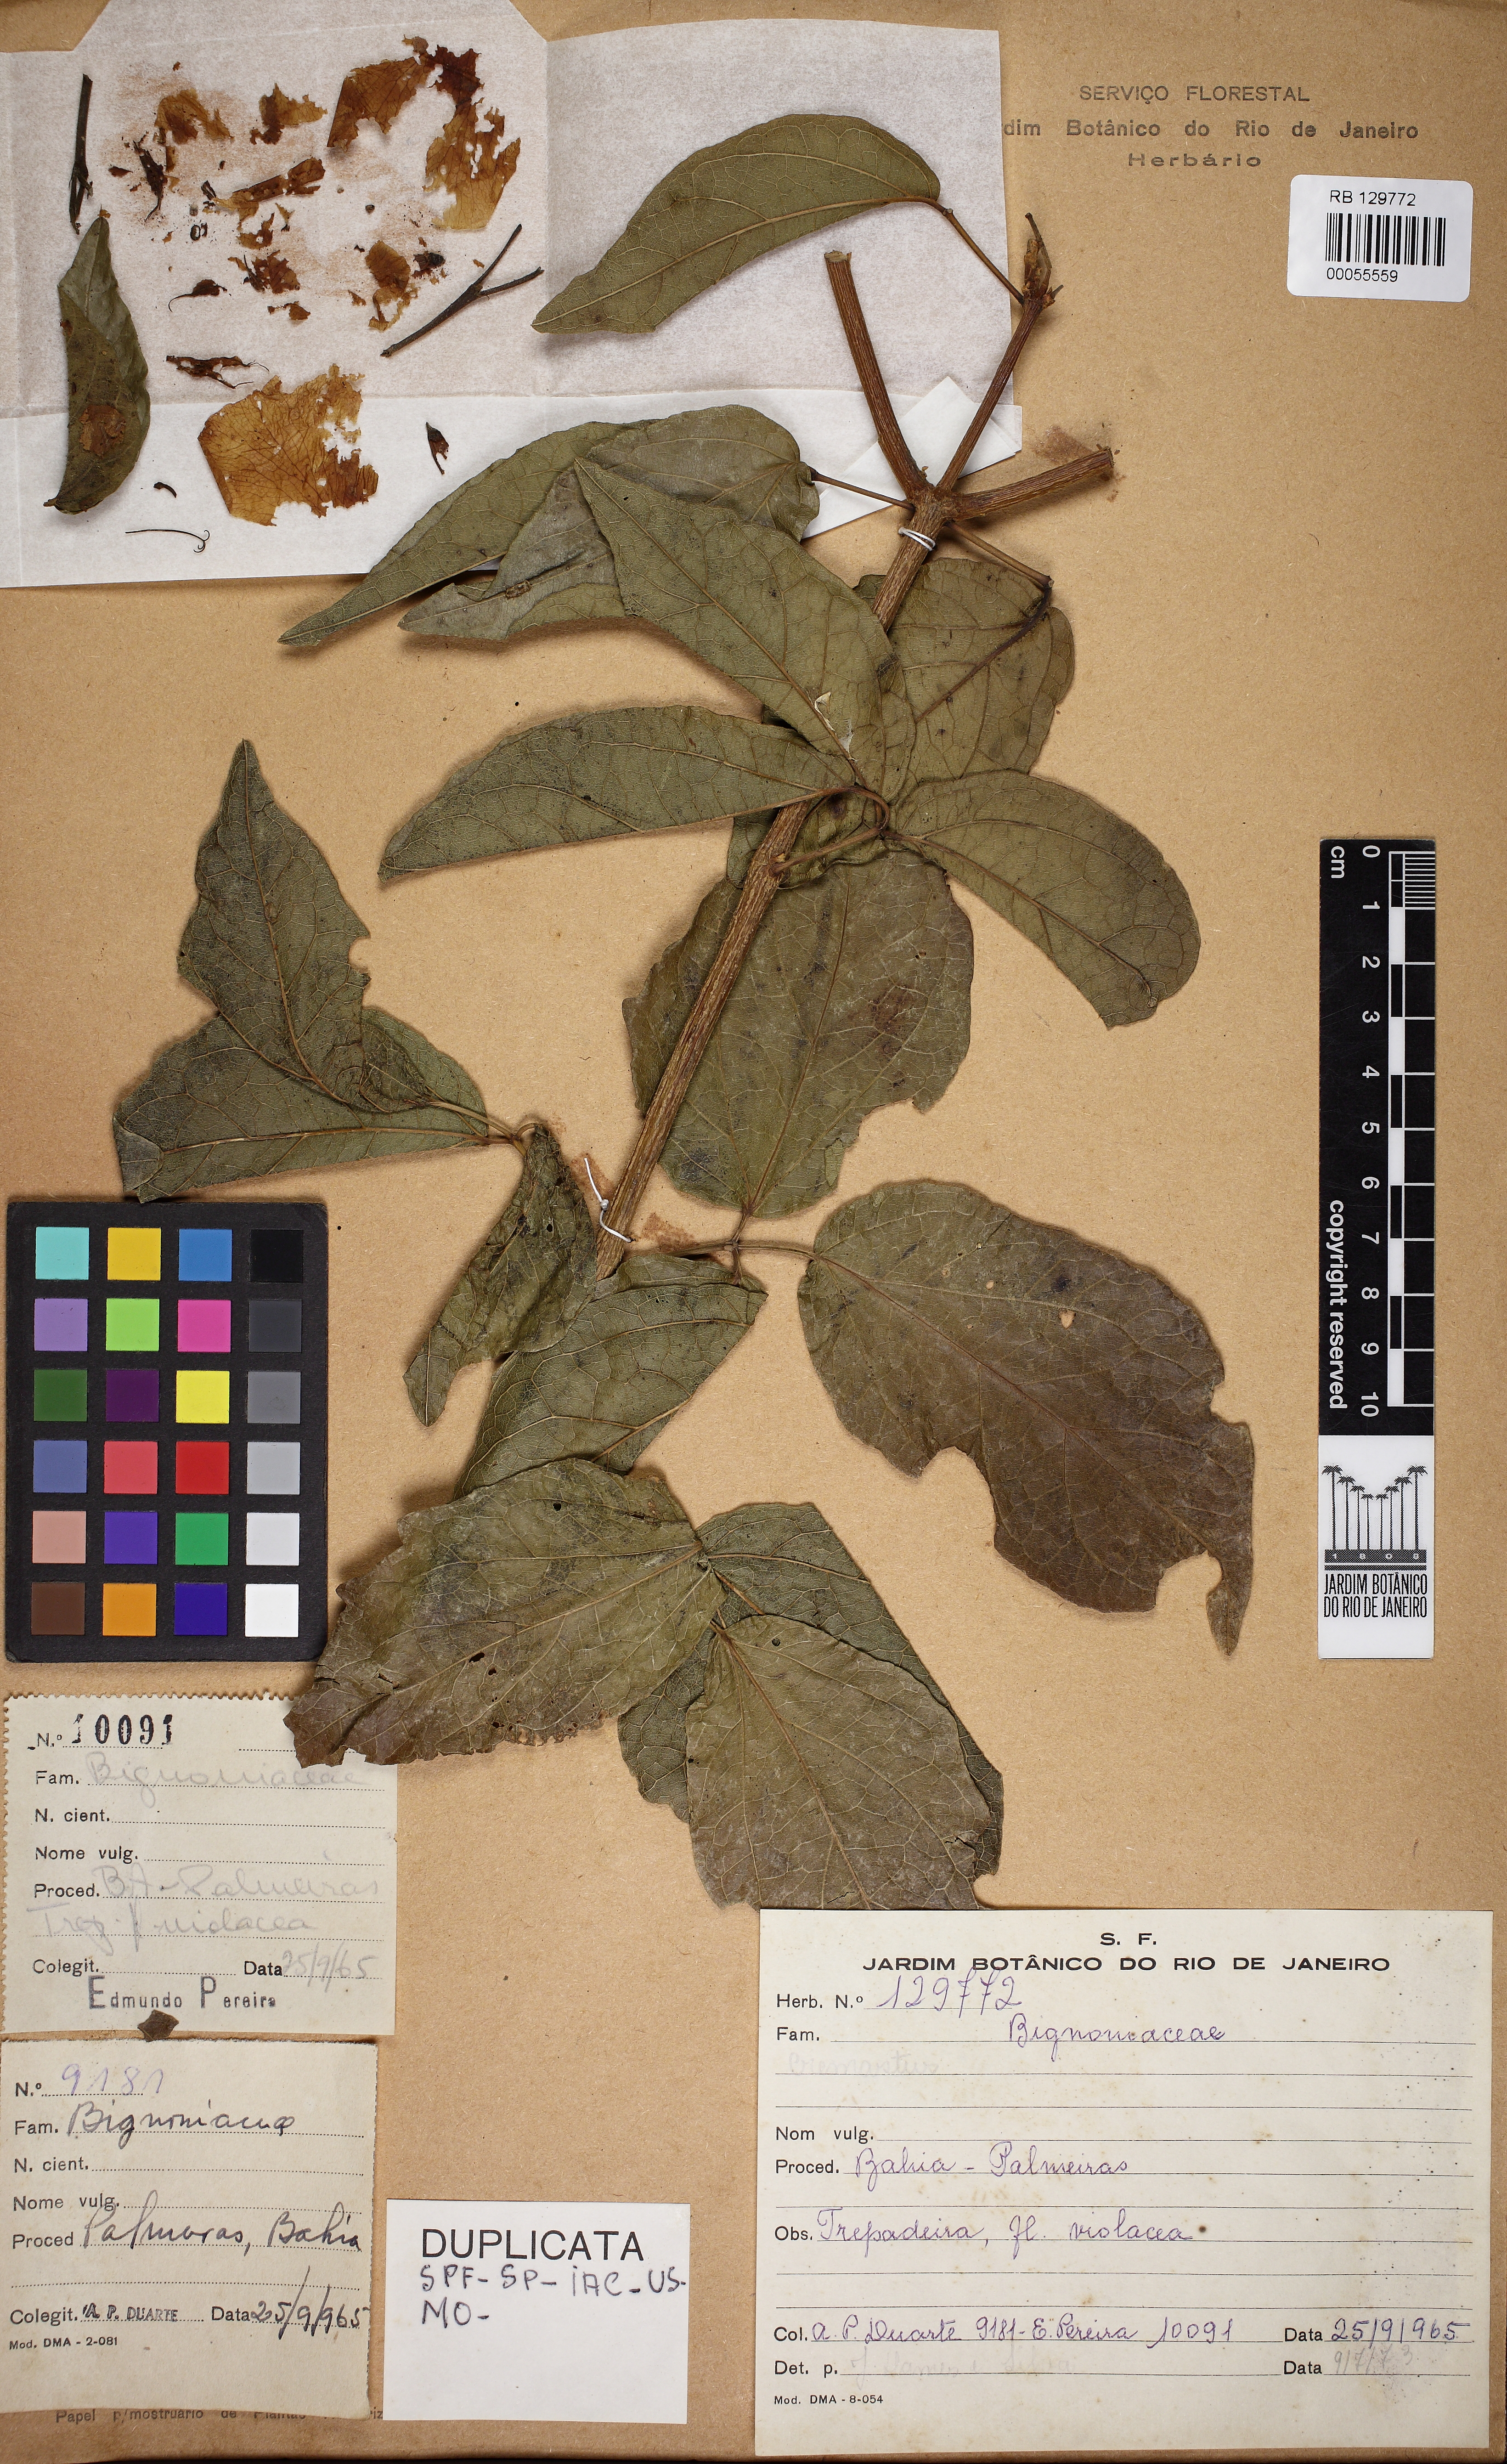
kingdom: Plantae
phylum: Tracheophyta
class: Magnoliopsida
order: Lamiales
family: Bignoniaceae
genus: Cuspidaria
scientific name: Cuspidaria pulchra
